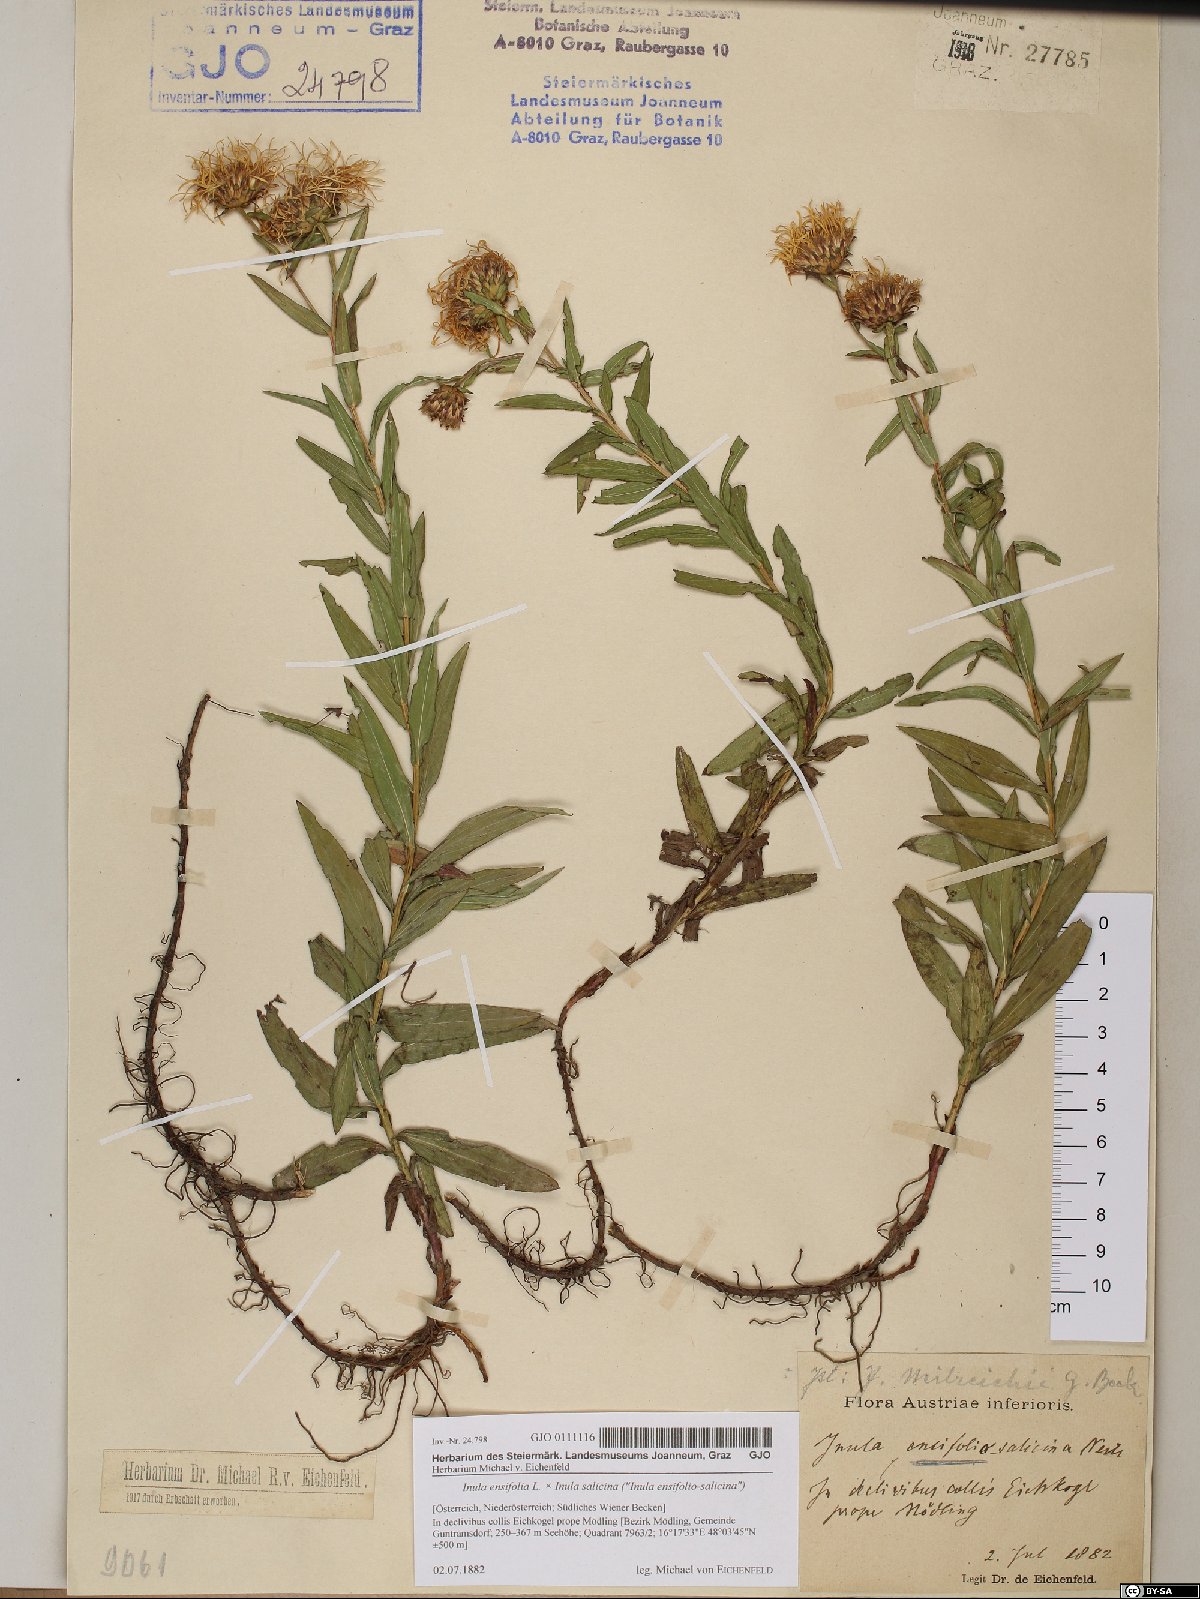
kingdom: Plantae
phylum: Tracheophyta
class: Magnoliopsida
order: Asterales
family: Asteraceae
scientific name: Asteraceae
